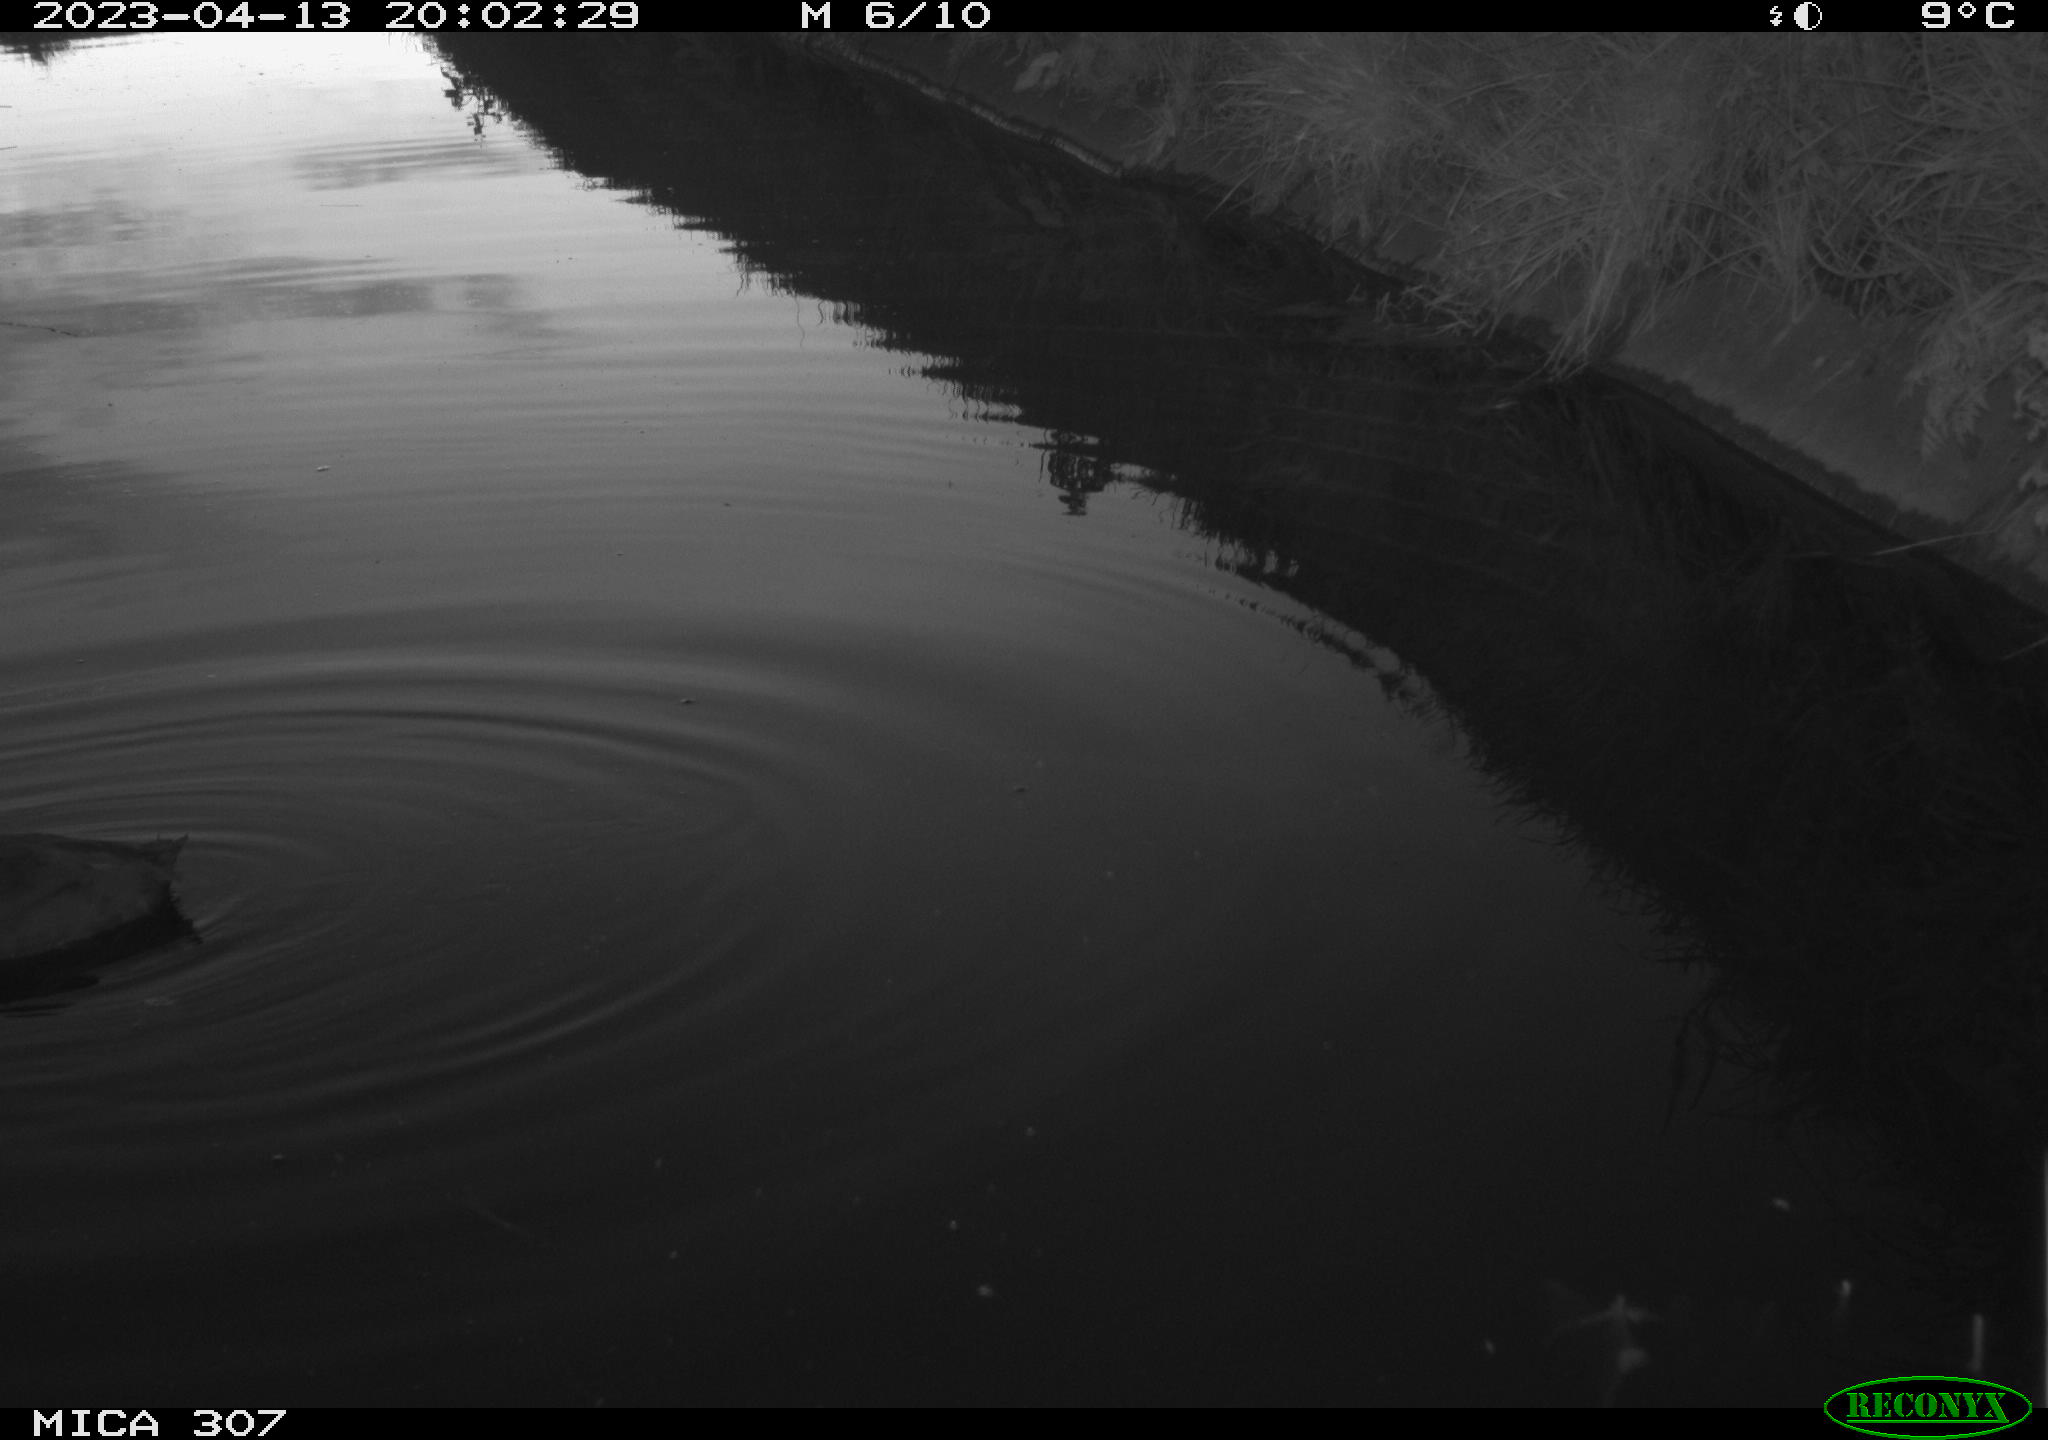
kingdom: Animalia
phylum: Chordata
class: Aves
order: Anseriformes
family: Anatidae
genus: Anas
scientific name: Anas
